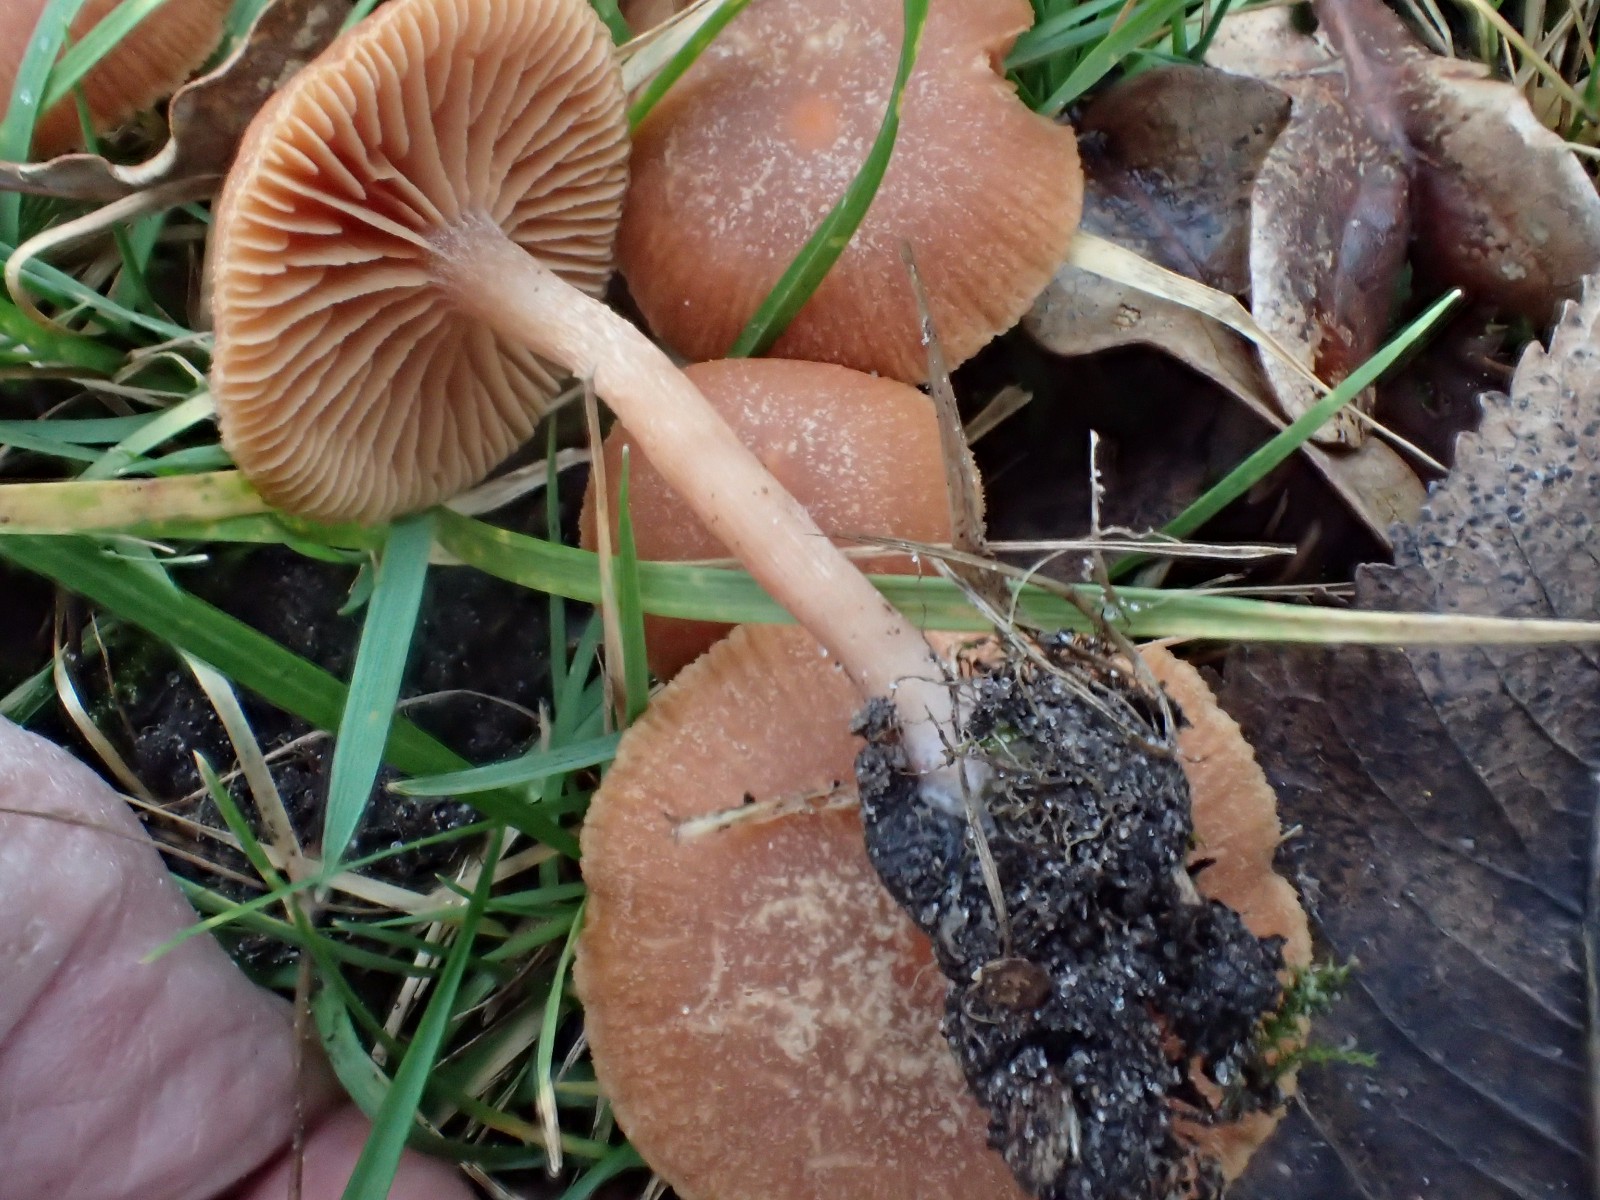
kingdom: Fungi
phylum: Basidiomycota
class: Agaricomycetes
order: Agaricales
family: Tubariaceae
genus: Tubaria
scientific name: Tubaria furfuracea
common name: kliddet fnughat
